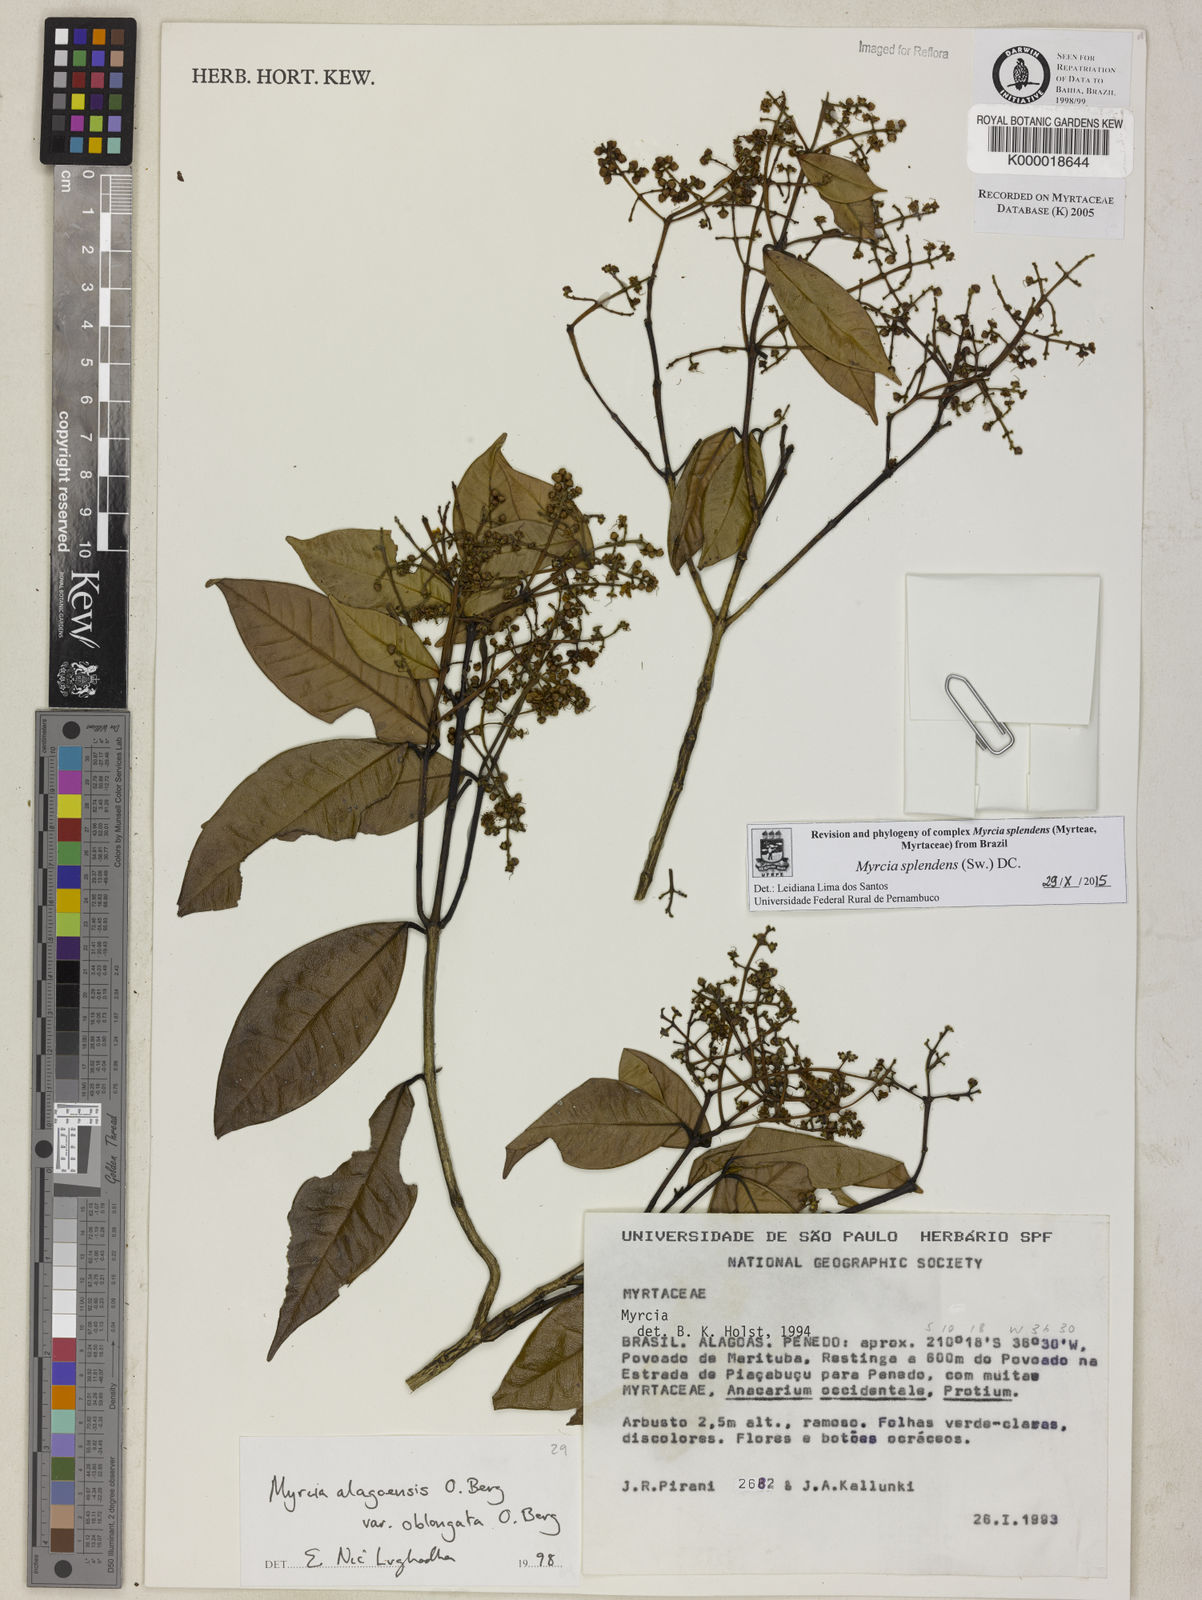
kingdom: Plantae
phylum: Tracheophyta
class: Magnoliopsida
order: Myrtales
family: Myrtaceae
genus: Myrcia
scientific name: Myrcia splendens
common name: Surinam cherry
